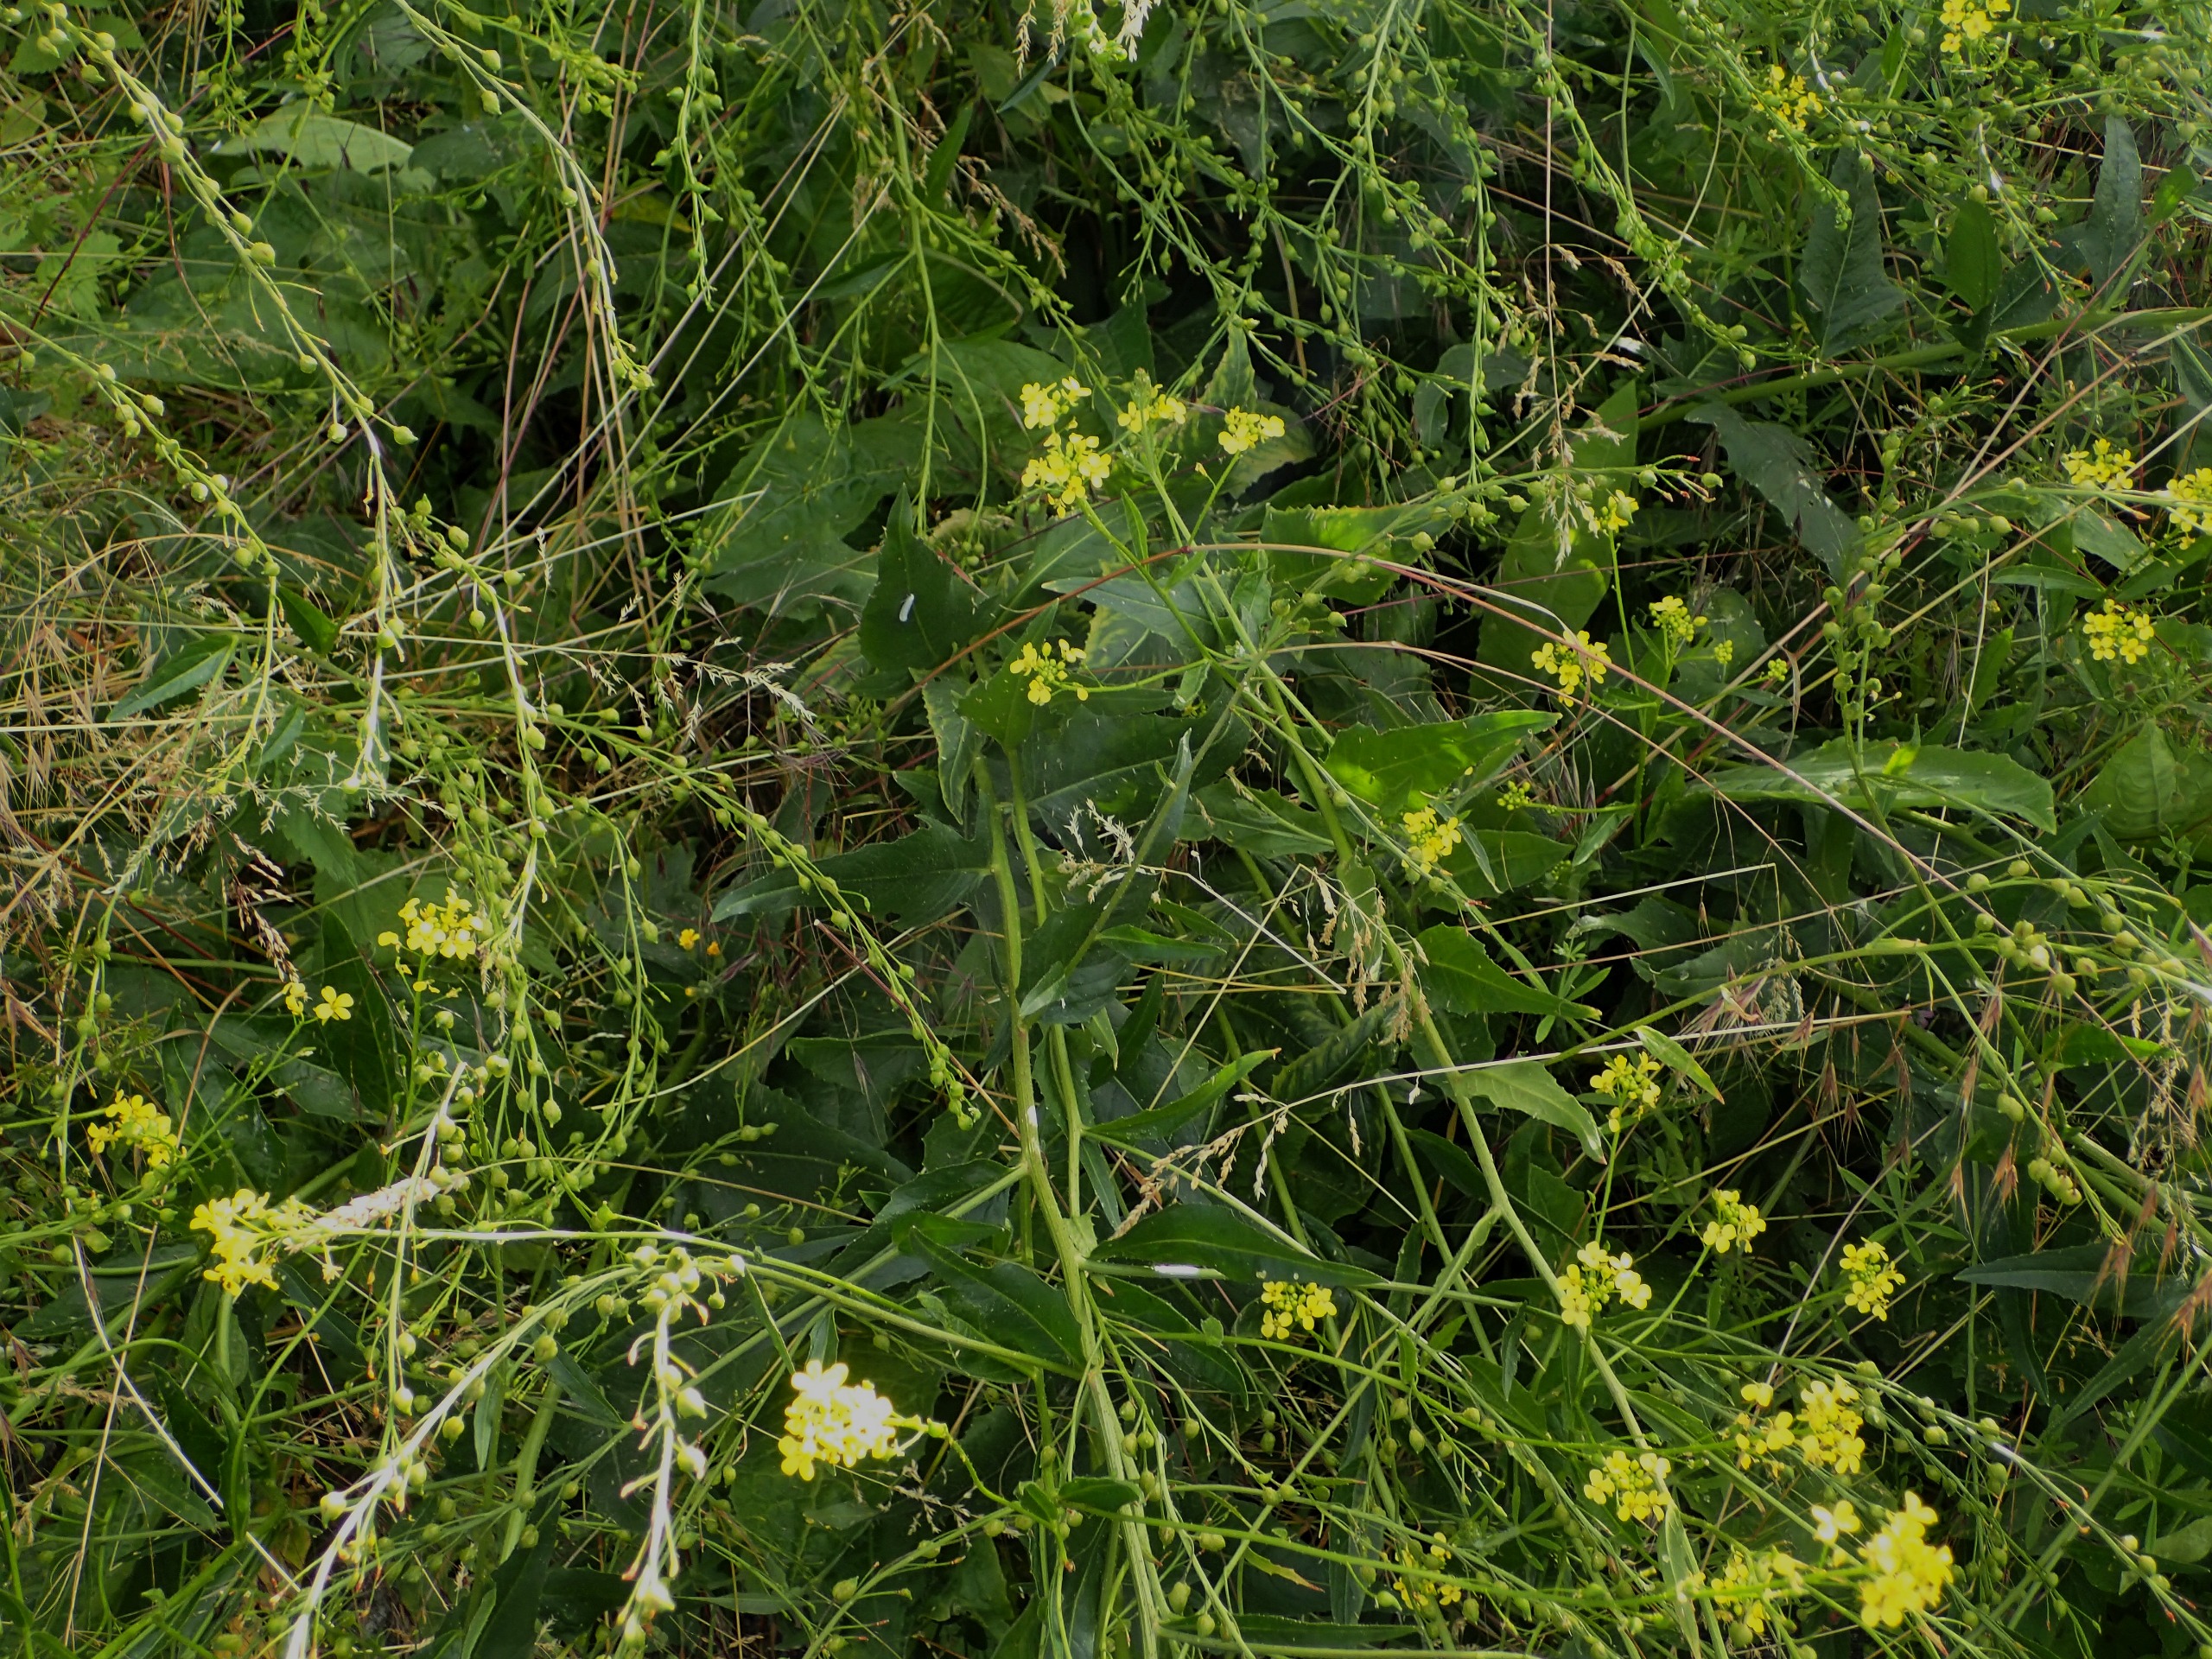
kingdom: Plantae
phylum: Tracheophyta
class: Magnoliopsida
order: Brassicales
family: Brassicaceae
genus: Bunias
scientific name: Bunias orientalis
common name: Takkeklap
